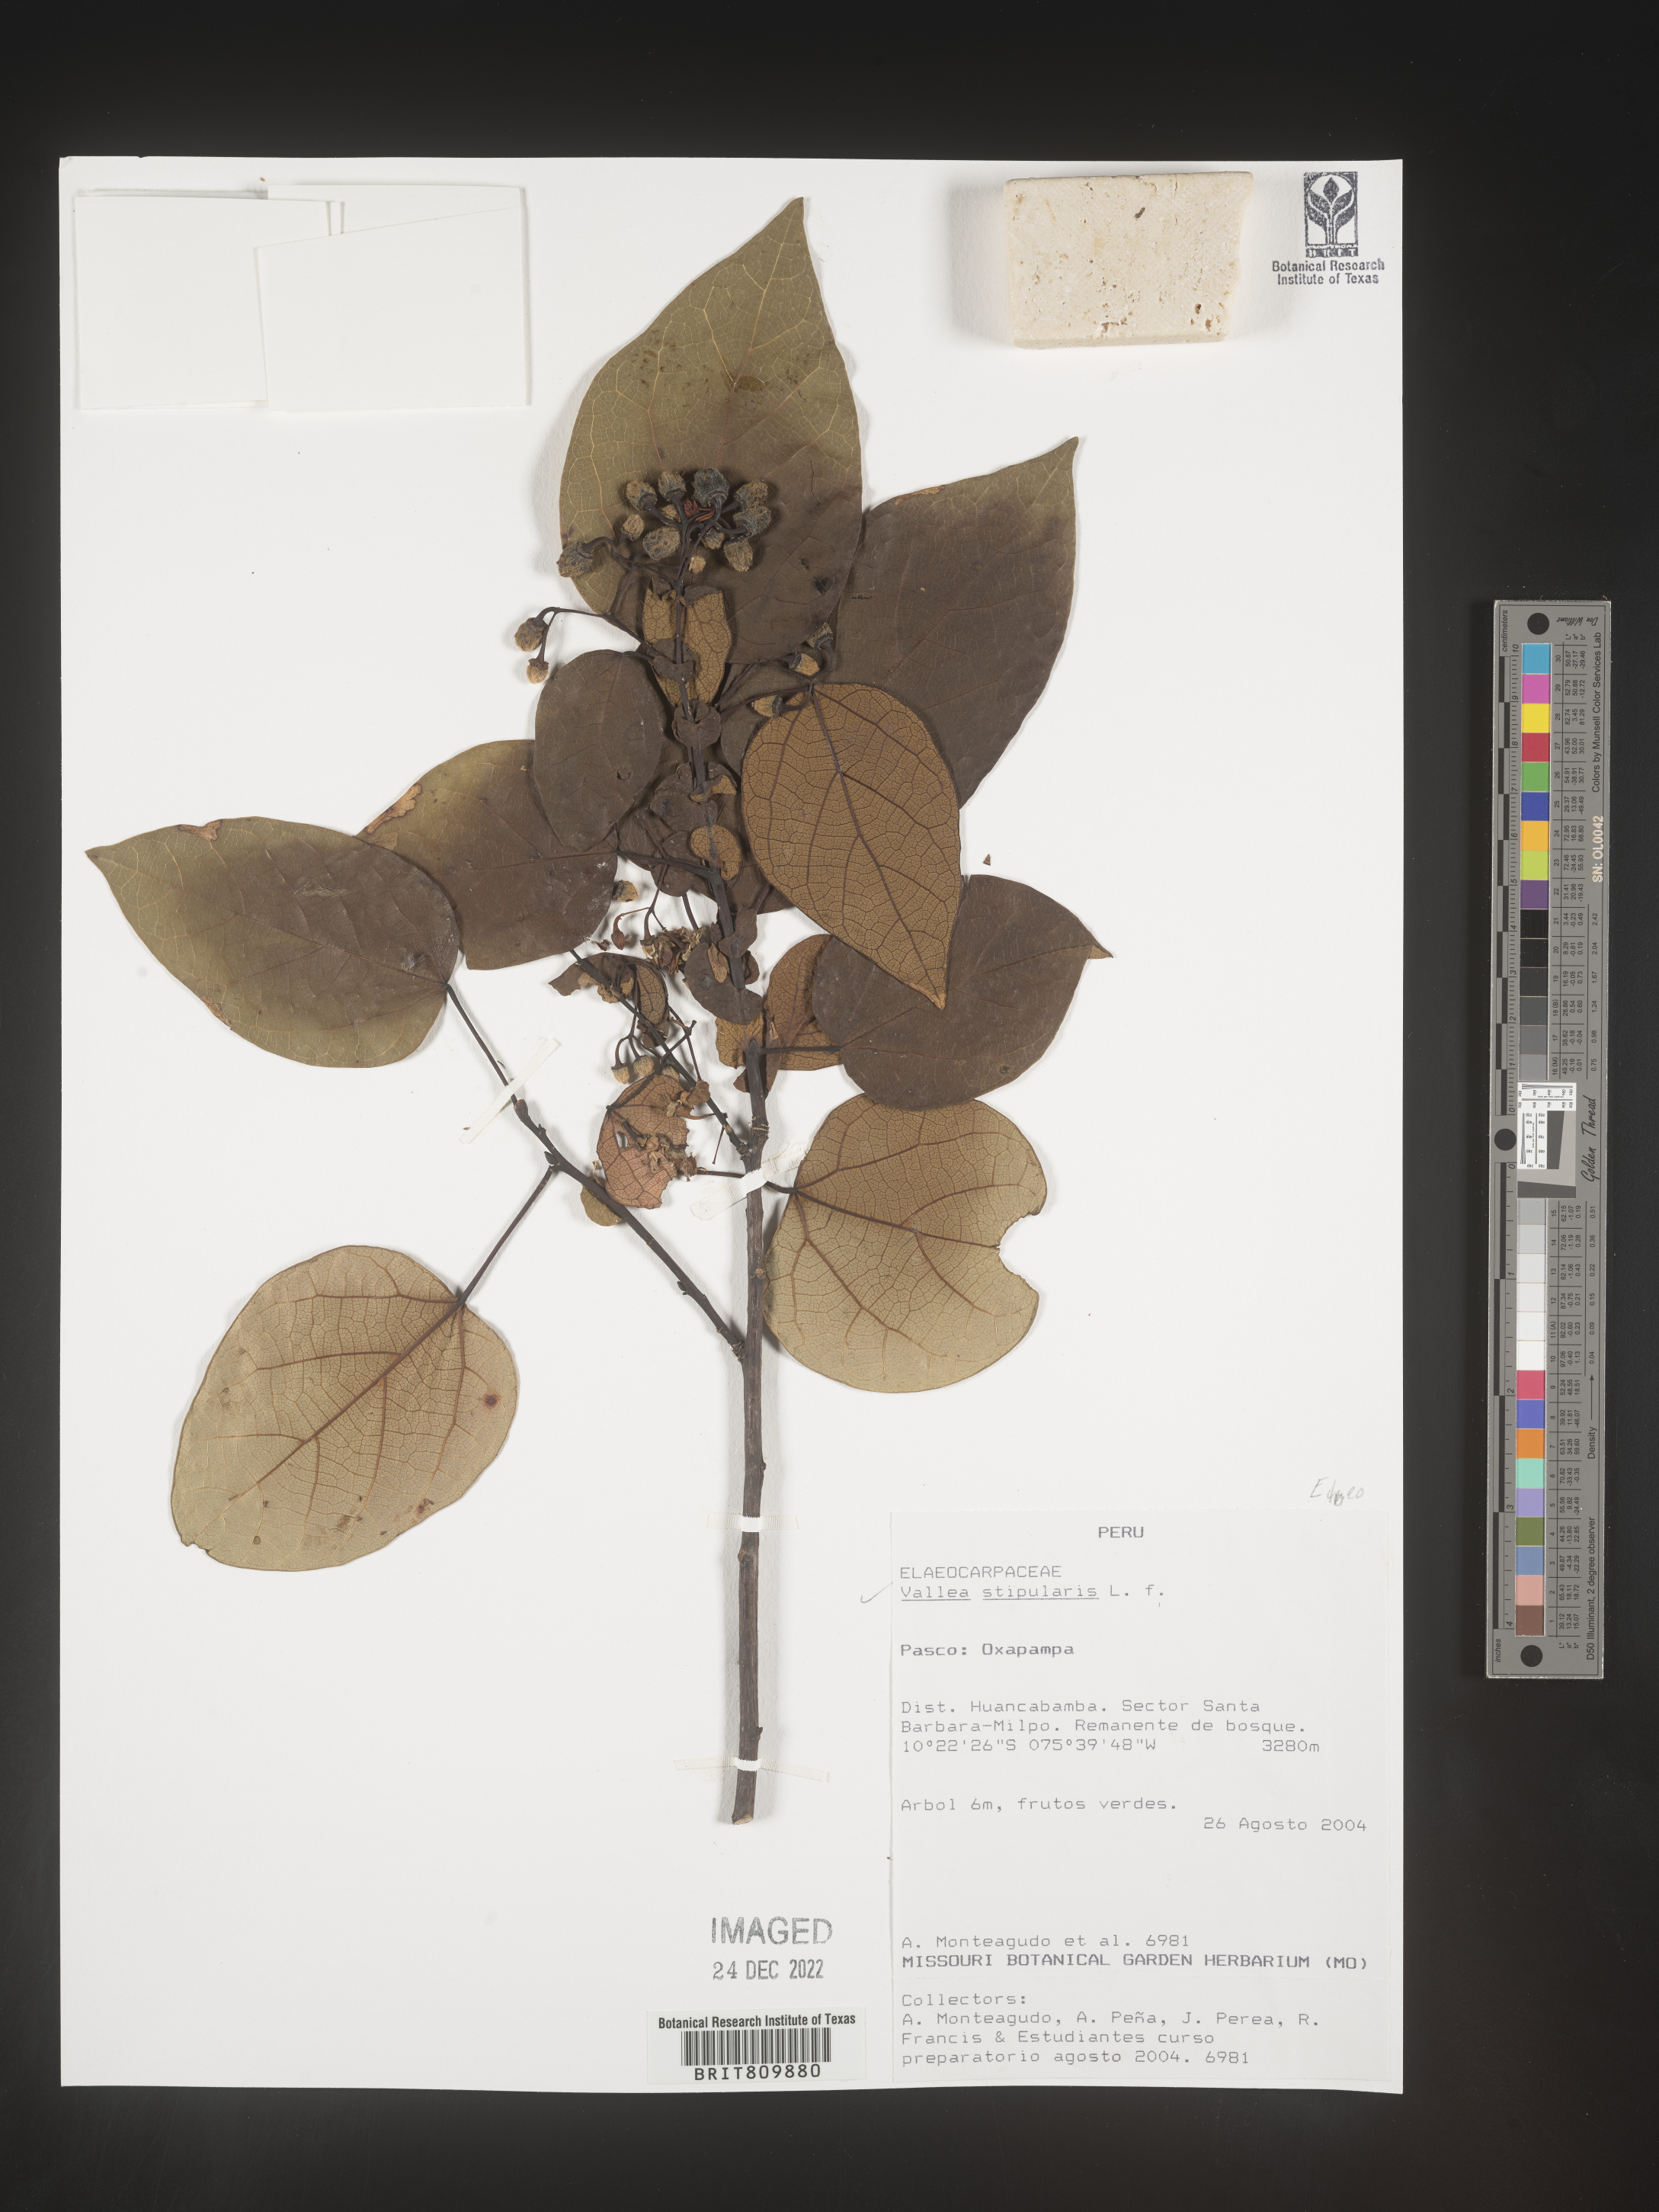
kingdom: Plantae
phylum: Tracheophyta
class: Magnoliopsida
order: Oxalidales
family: Elaeocarpaceae
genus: Vallea
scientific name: Vallea
